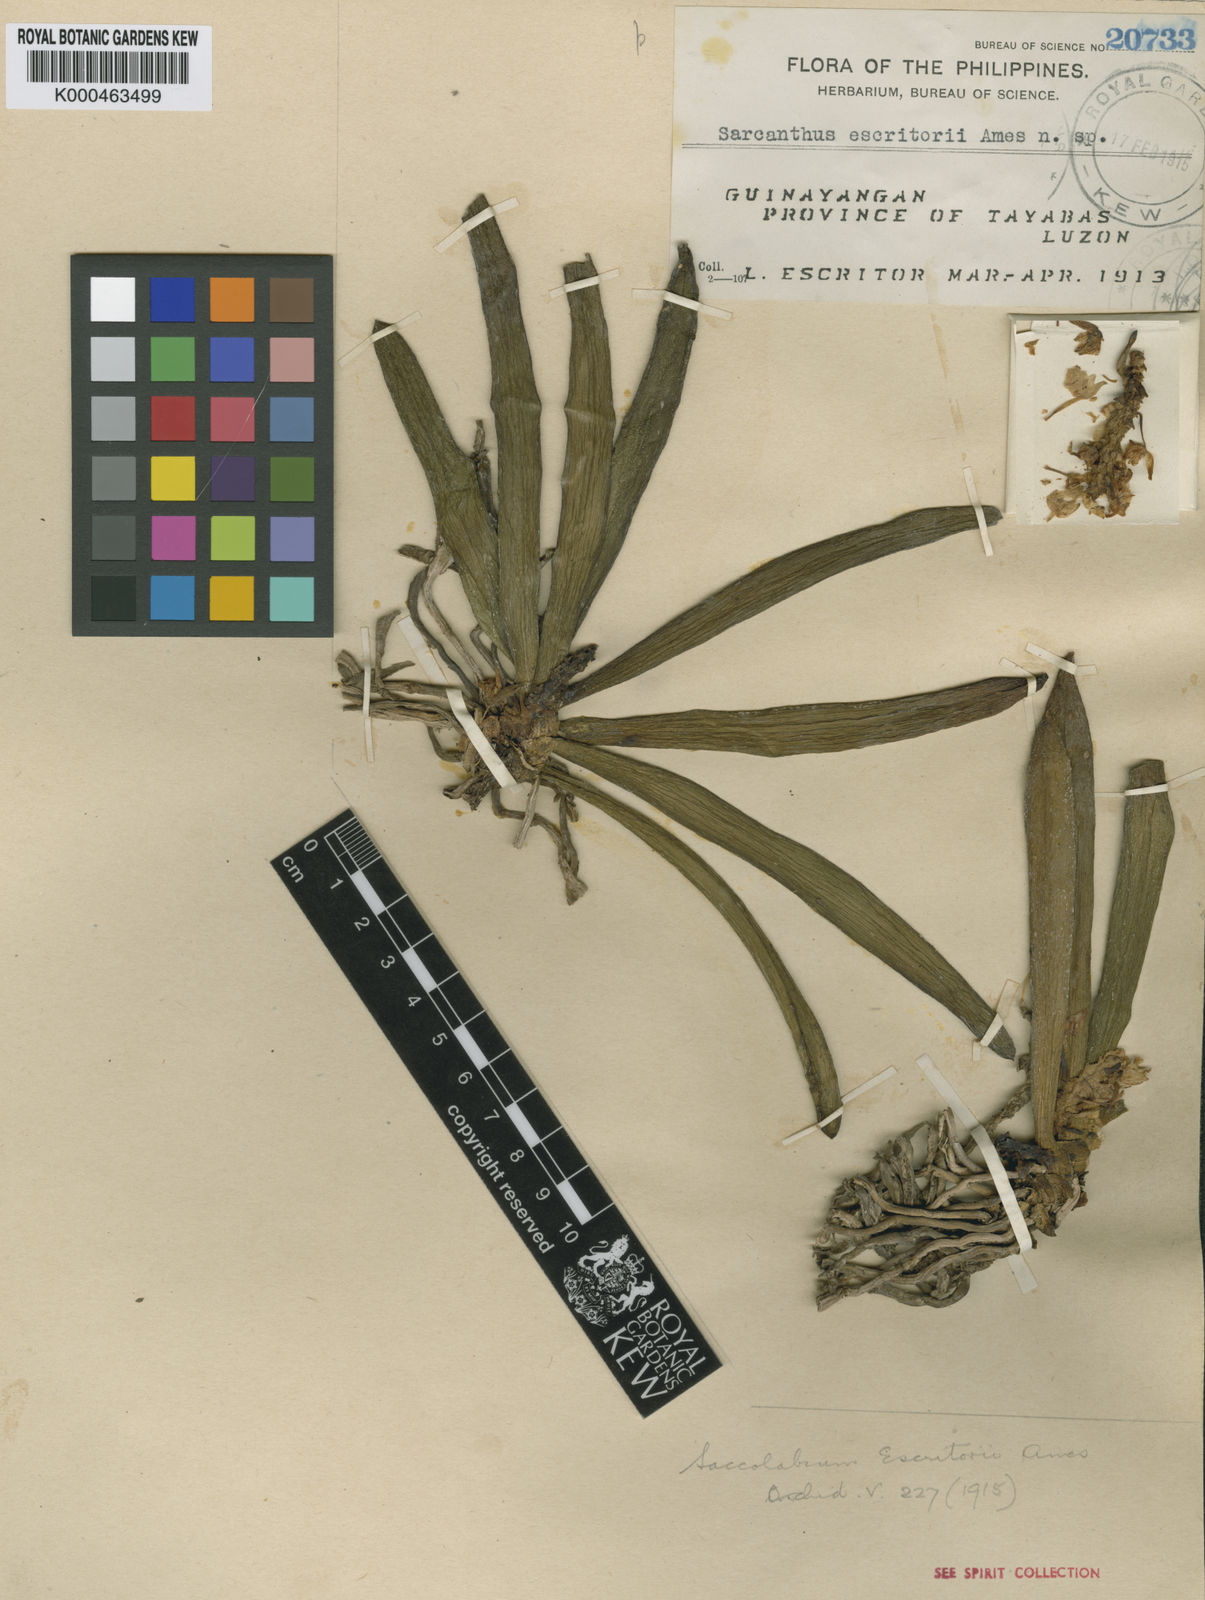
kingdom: Plantae
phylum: Tracheophyta
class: Liliopsida
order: Asparagales
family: Orchidaceae
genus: Tuberolabium
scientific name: Tuberolabium escritorii
